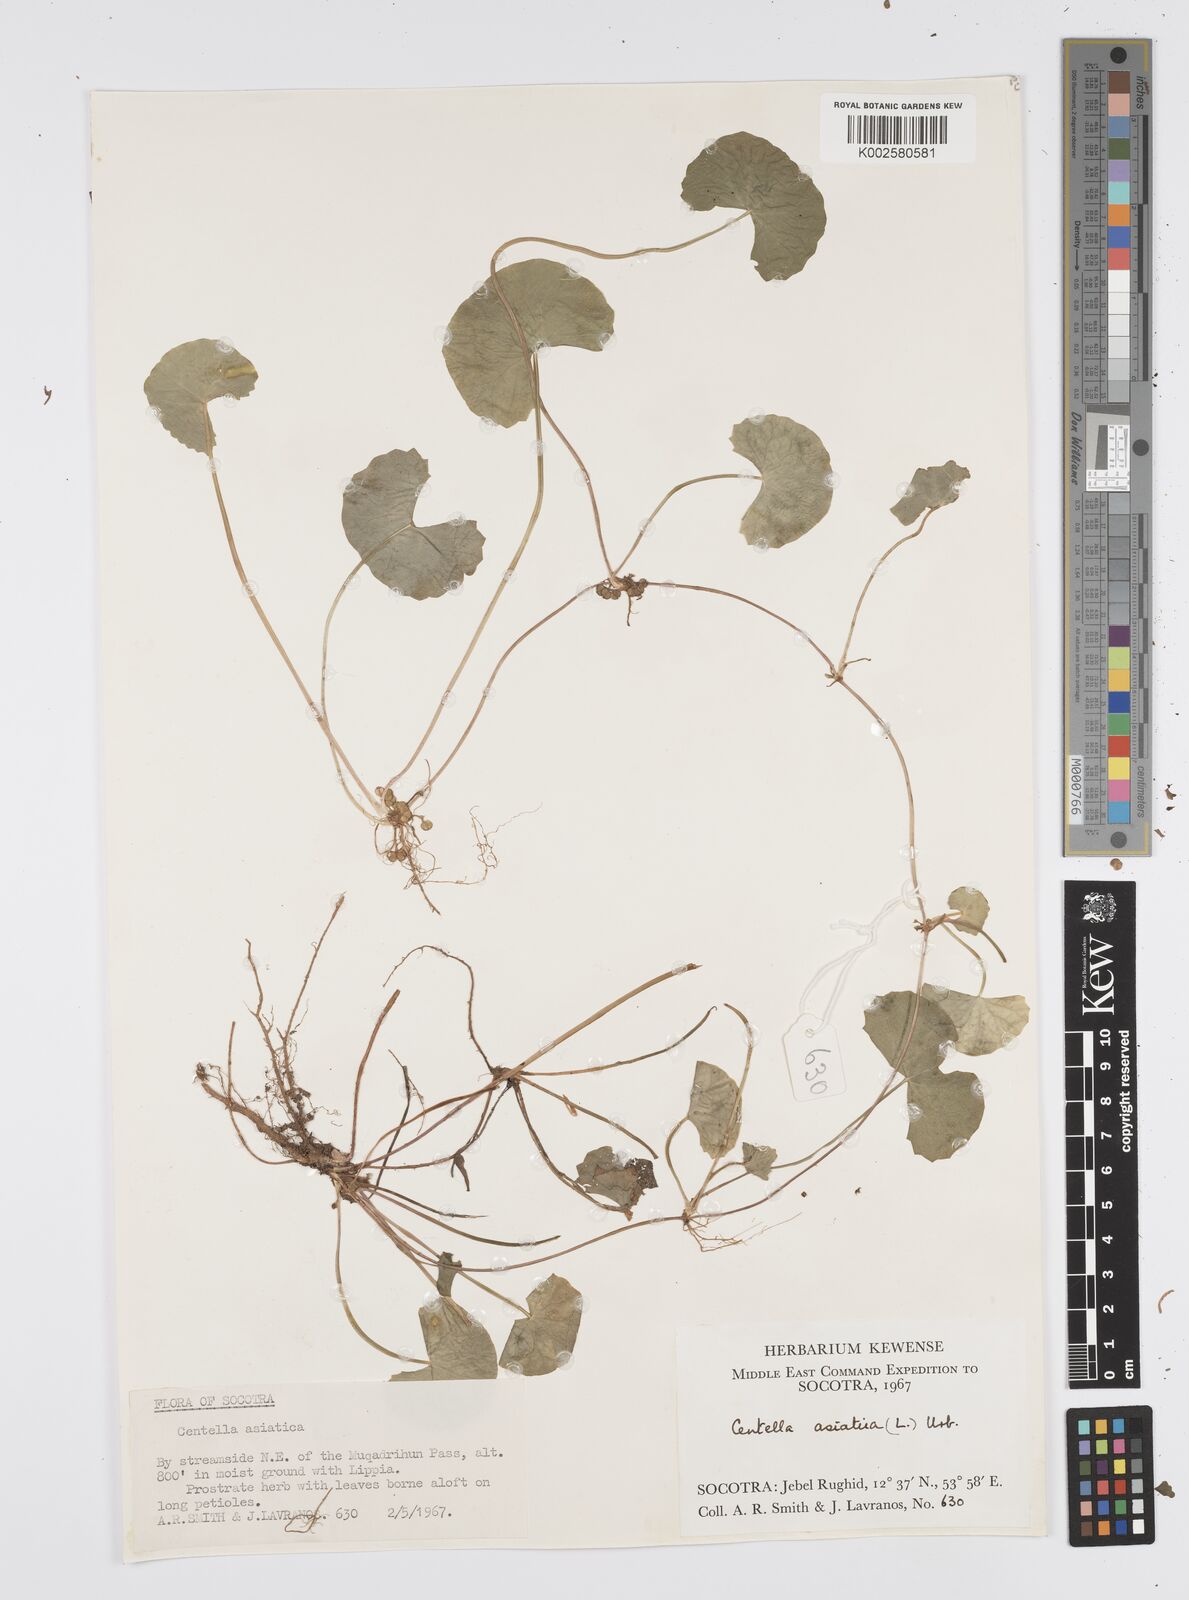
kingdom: Plantae
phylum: Tracheophyta
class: Magnoliopsida
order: Apiales
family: Apiaceae
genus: Centella
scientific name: Centella asiatica
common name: Spadeleaf
